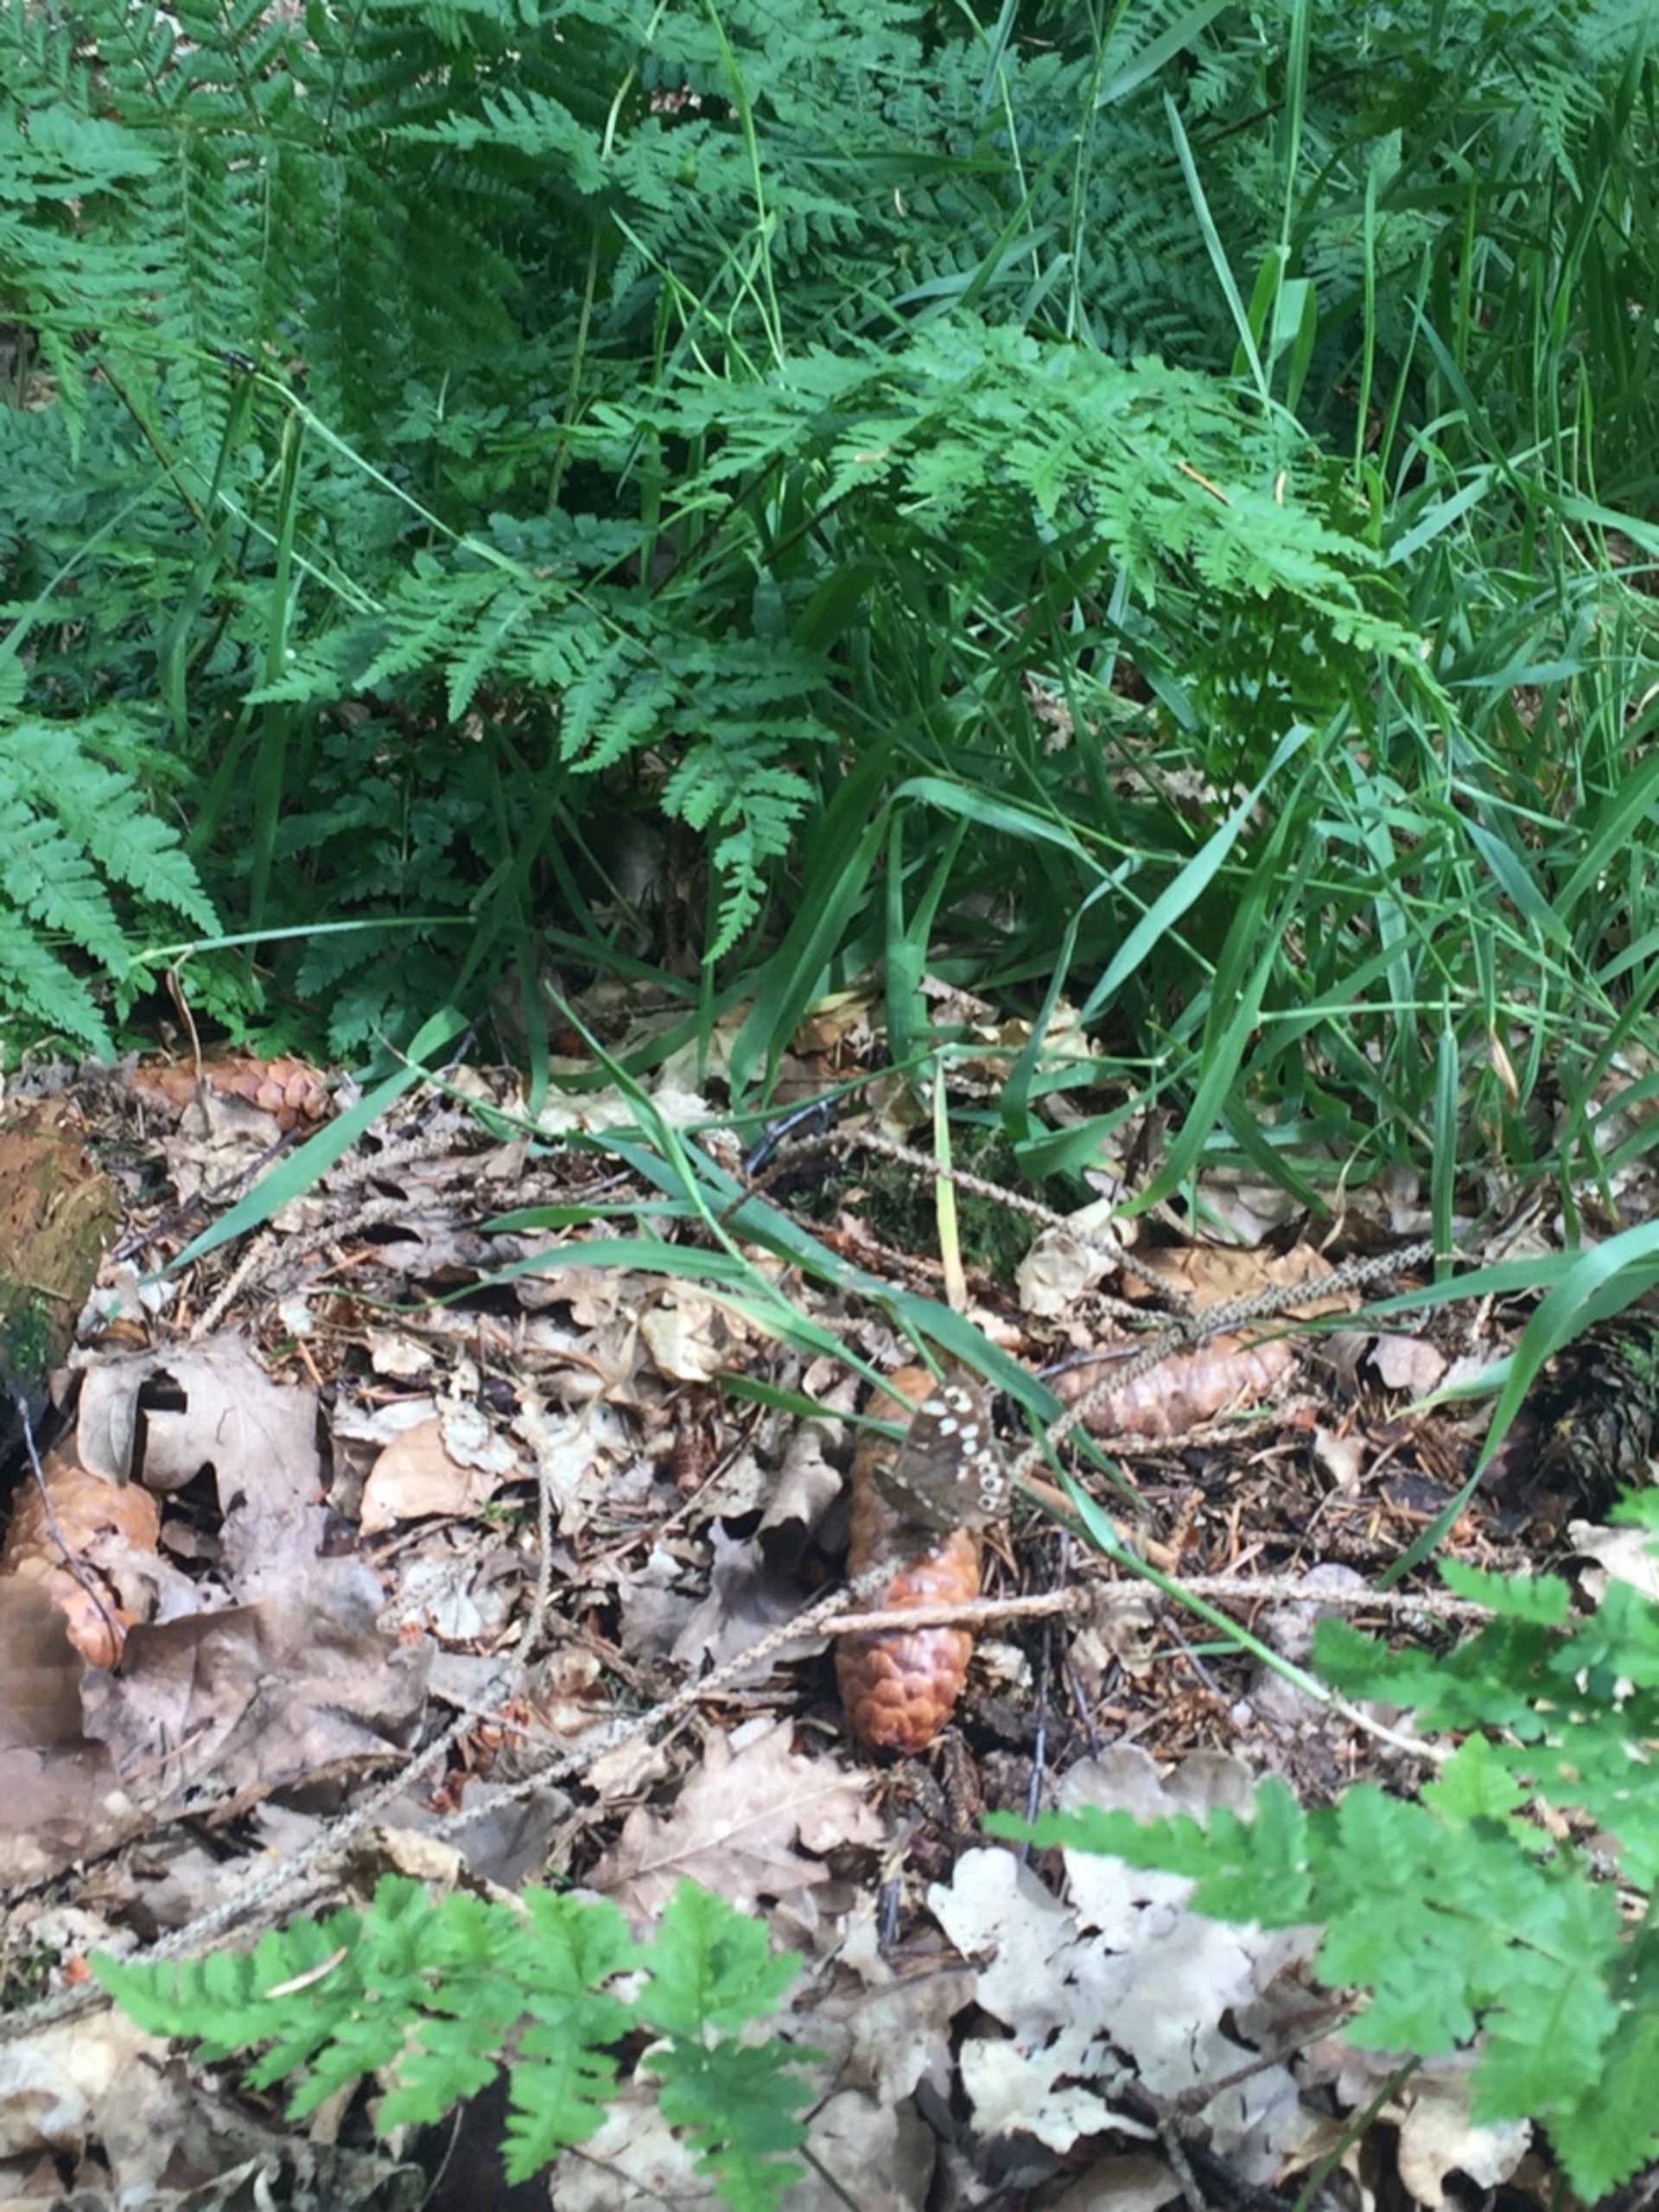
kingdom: Animalia
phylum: Arthropoda
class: Insecta
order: Lepidoptera
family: Nymphalidae
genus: Pararge
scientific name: Pararge aegeria
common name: Skovrandøje
